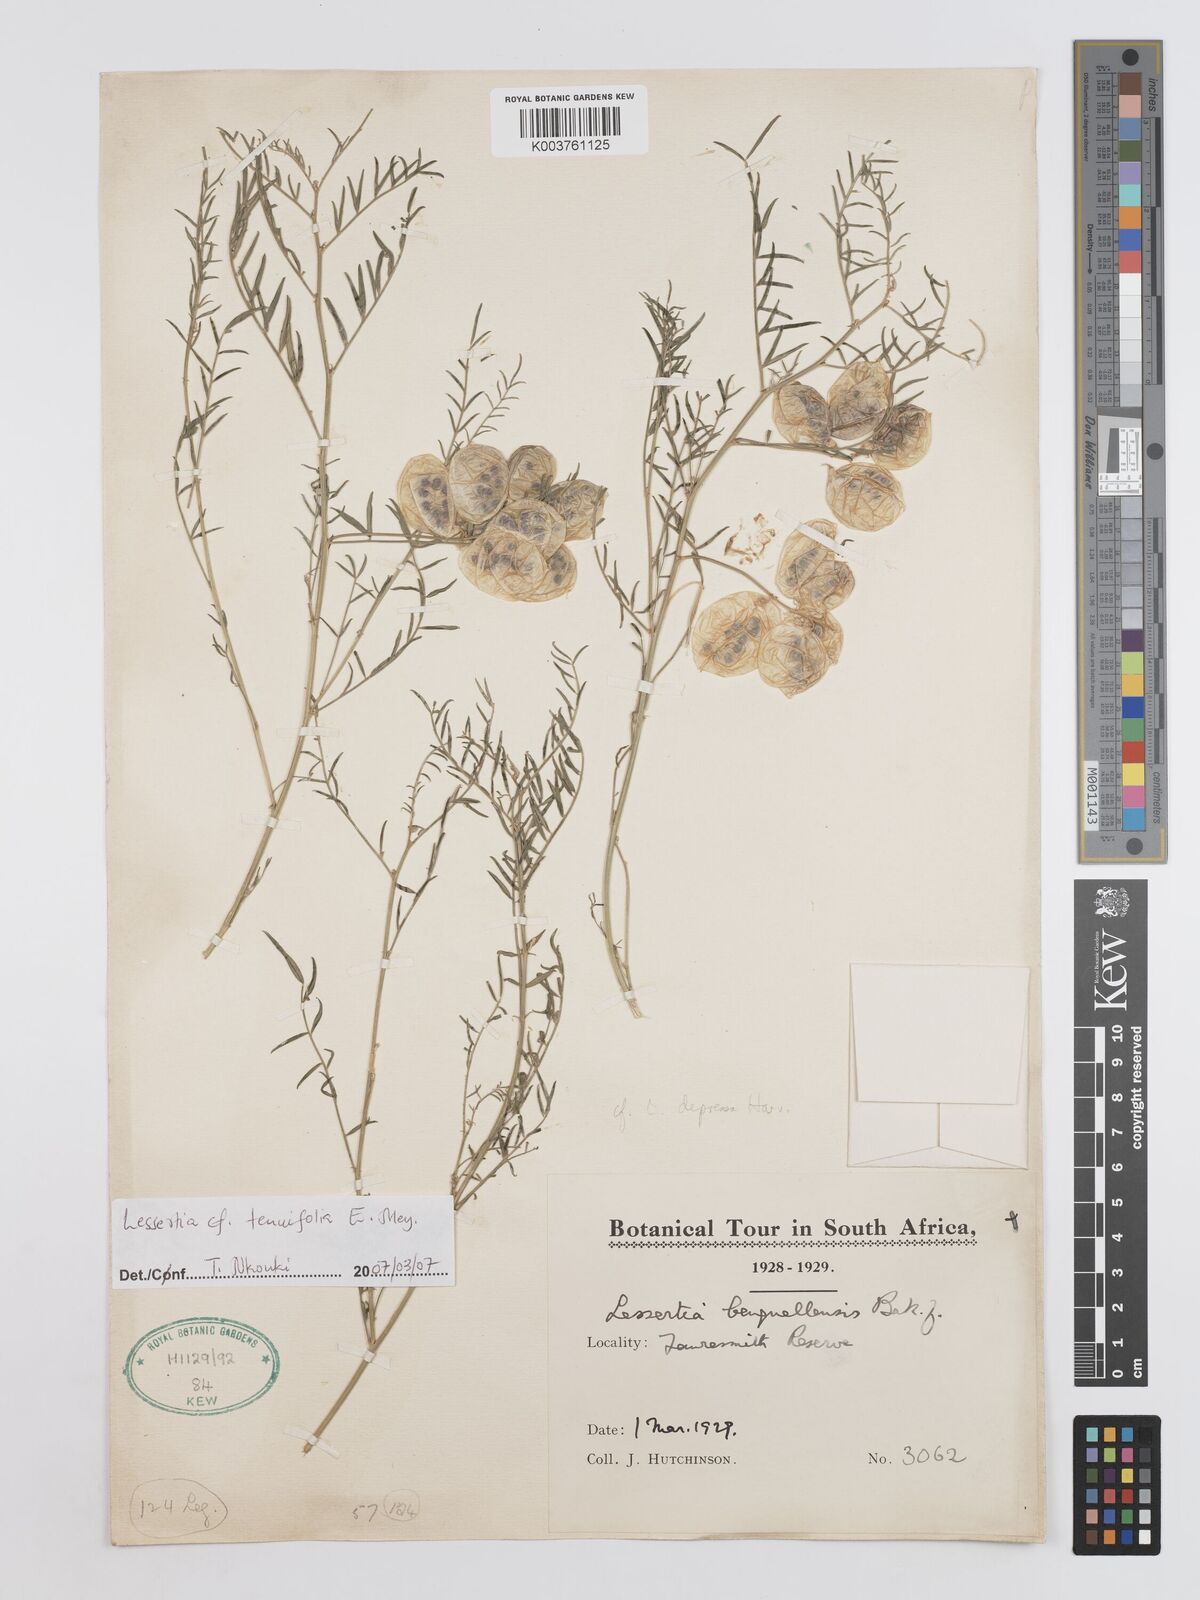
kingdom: Plantae
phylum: Tracheophyta
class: Magnoliopsida
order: Fabales
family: Fabaceae
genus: Lessertia
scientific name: Lessertia tenuifolia
